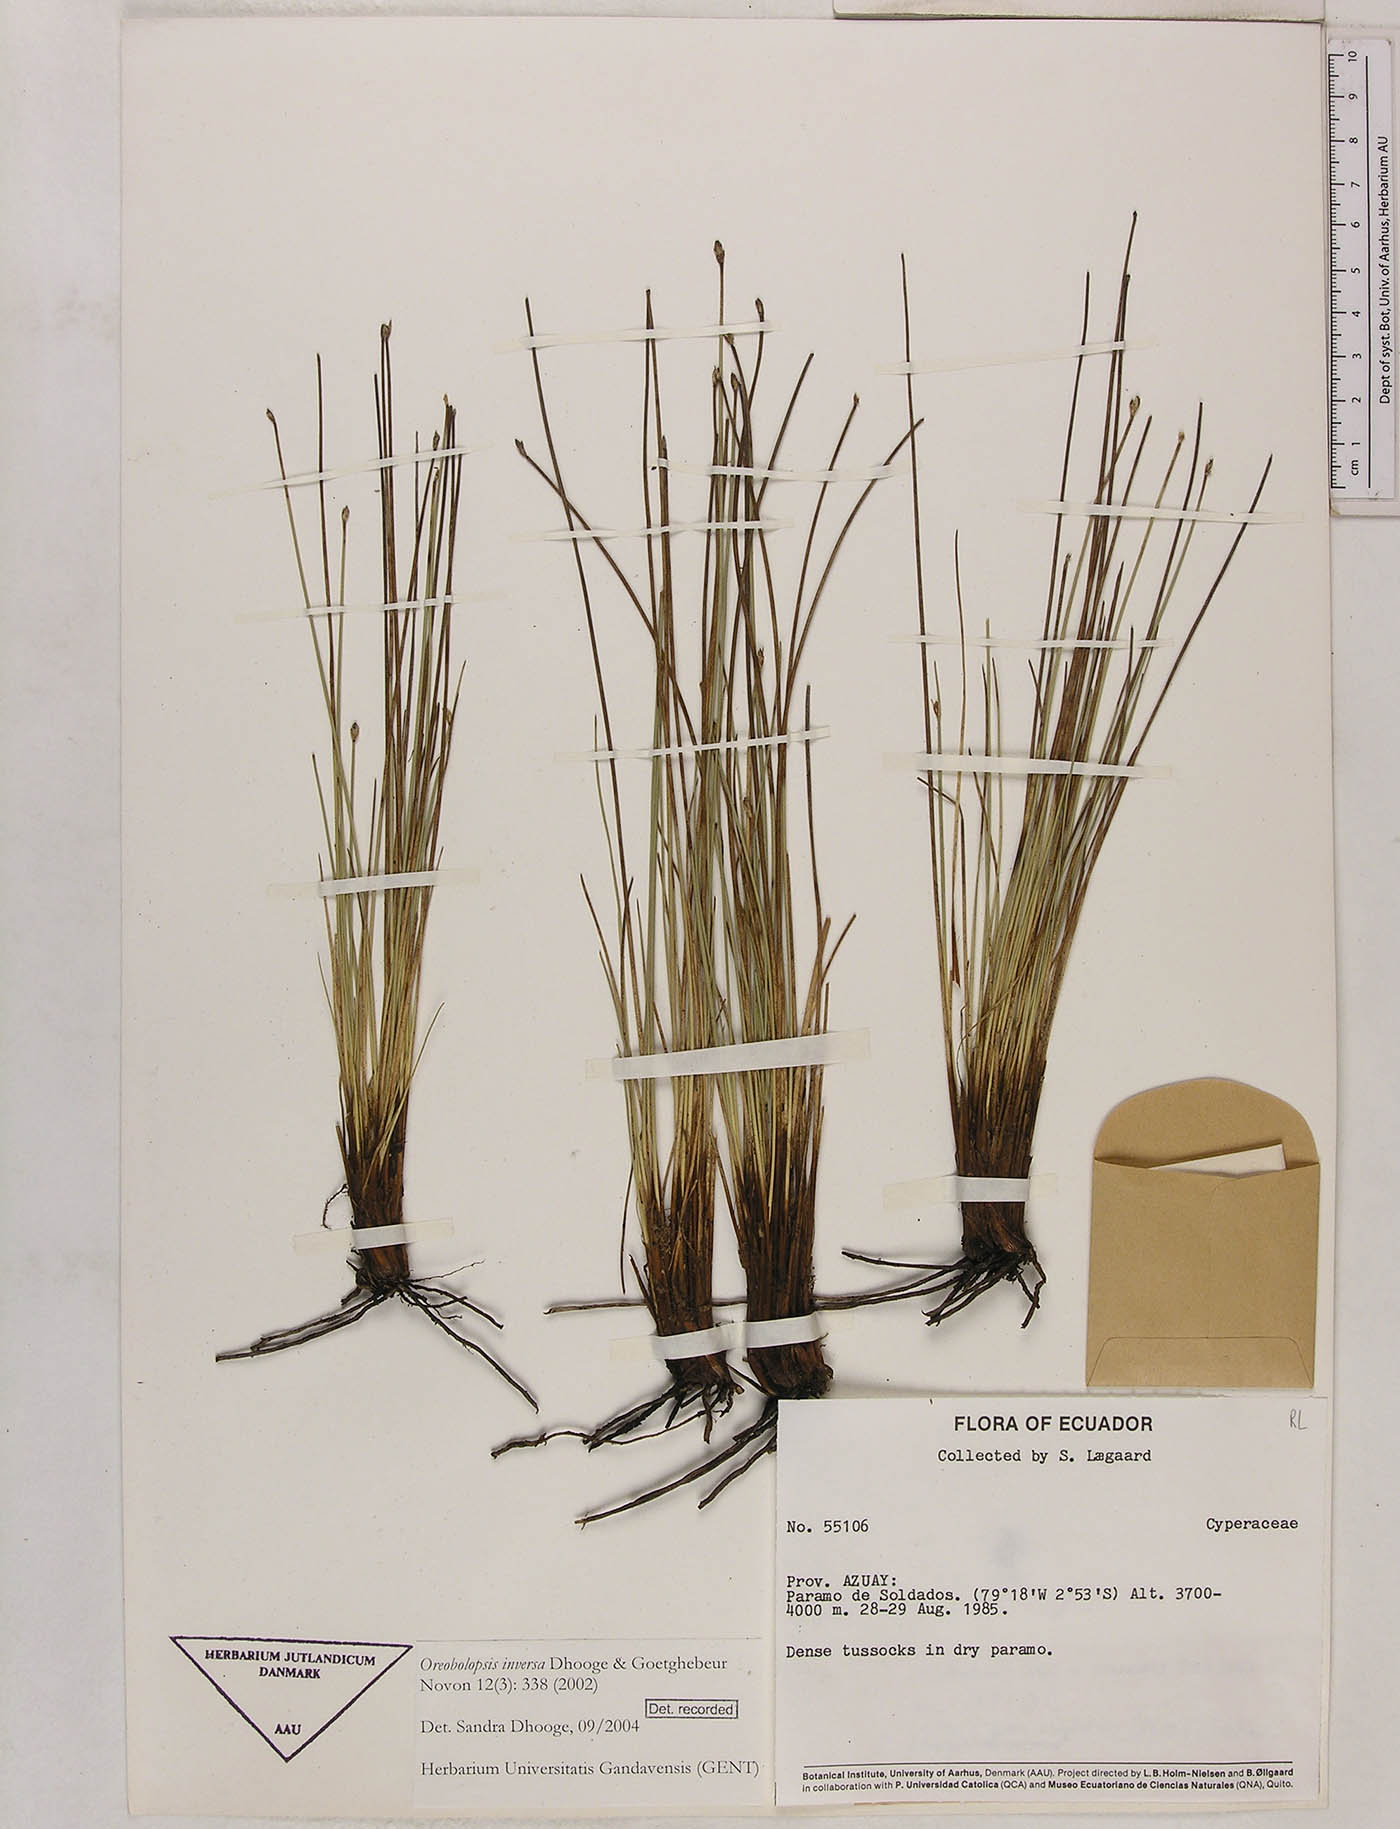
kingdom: Plantae
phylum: Tracheophyta
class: Liliopsida
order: Poales
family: Cyperaceae
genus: Trichophorum
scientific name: Trichophorum inversum
